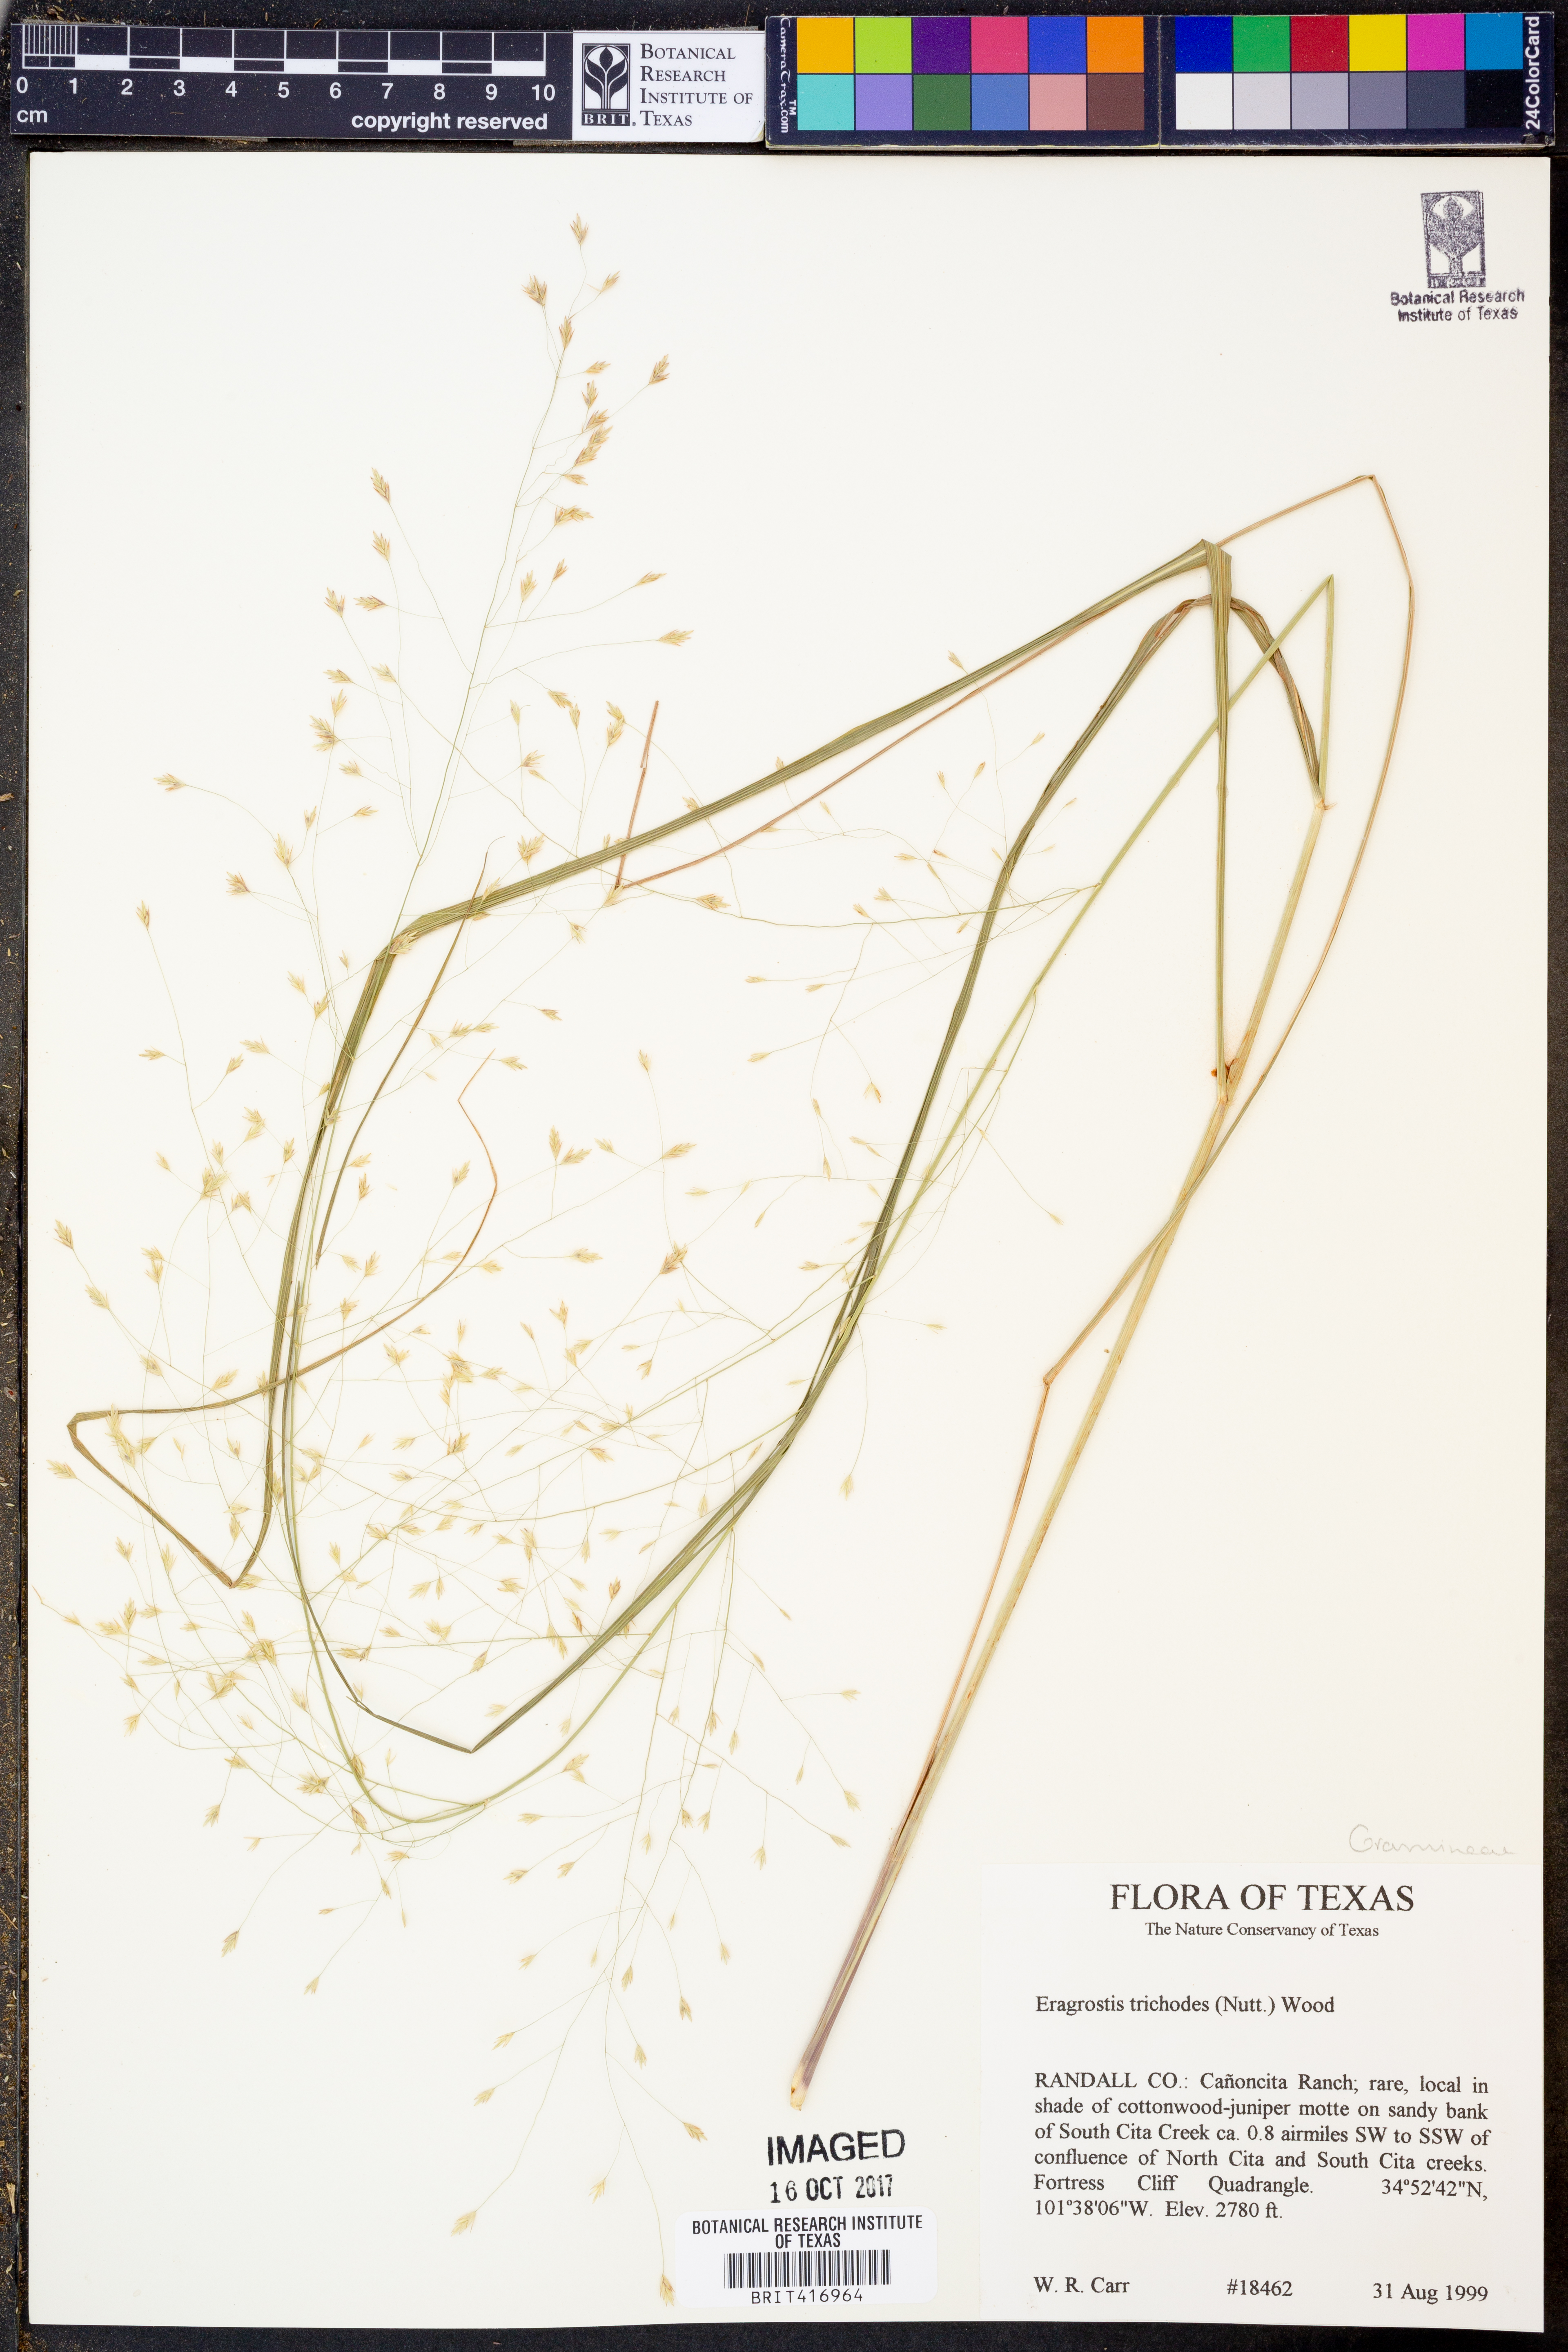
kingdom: Plantae
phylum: Tracheophyta
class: Liliopsida
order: Poales
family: Poaceae
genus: Eragrostis
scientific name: Eragrostis trichodes
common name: Sand love grass
